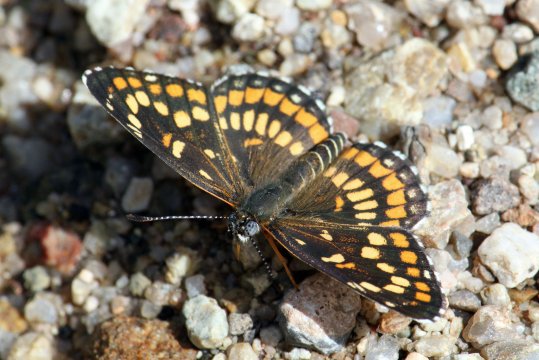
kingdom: Animalia
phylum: Arthropoda
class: Insecta
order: Lepidoptera
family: Nymphalidae
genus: Thessalia
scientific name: Thessalia theona
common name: Theona Checkerspot
